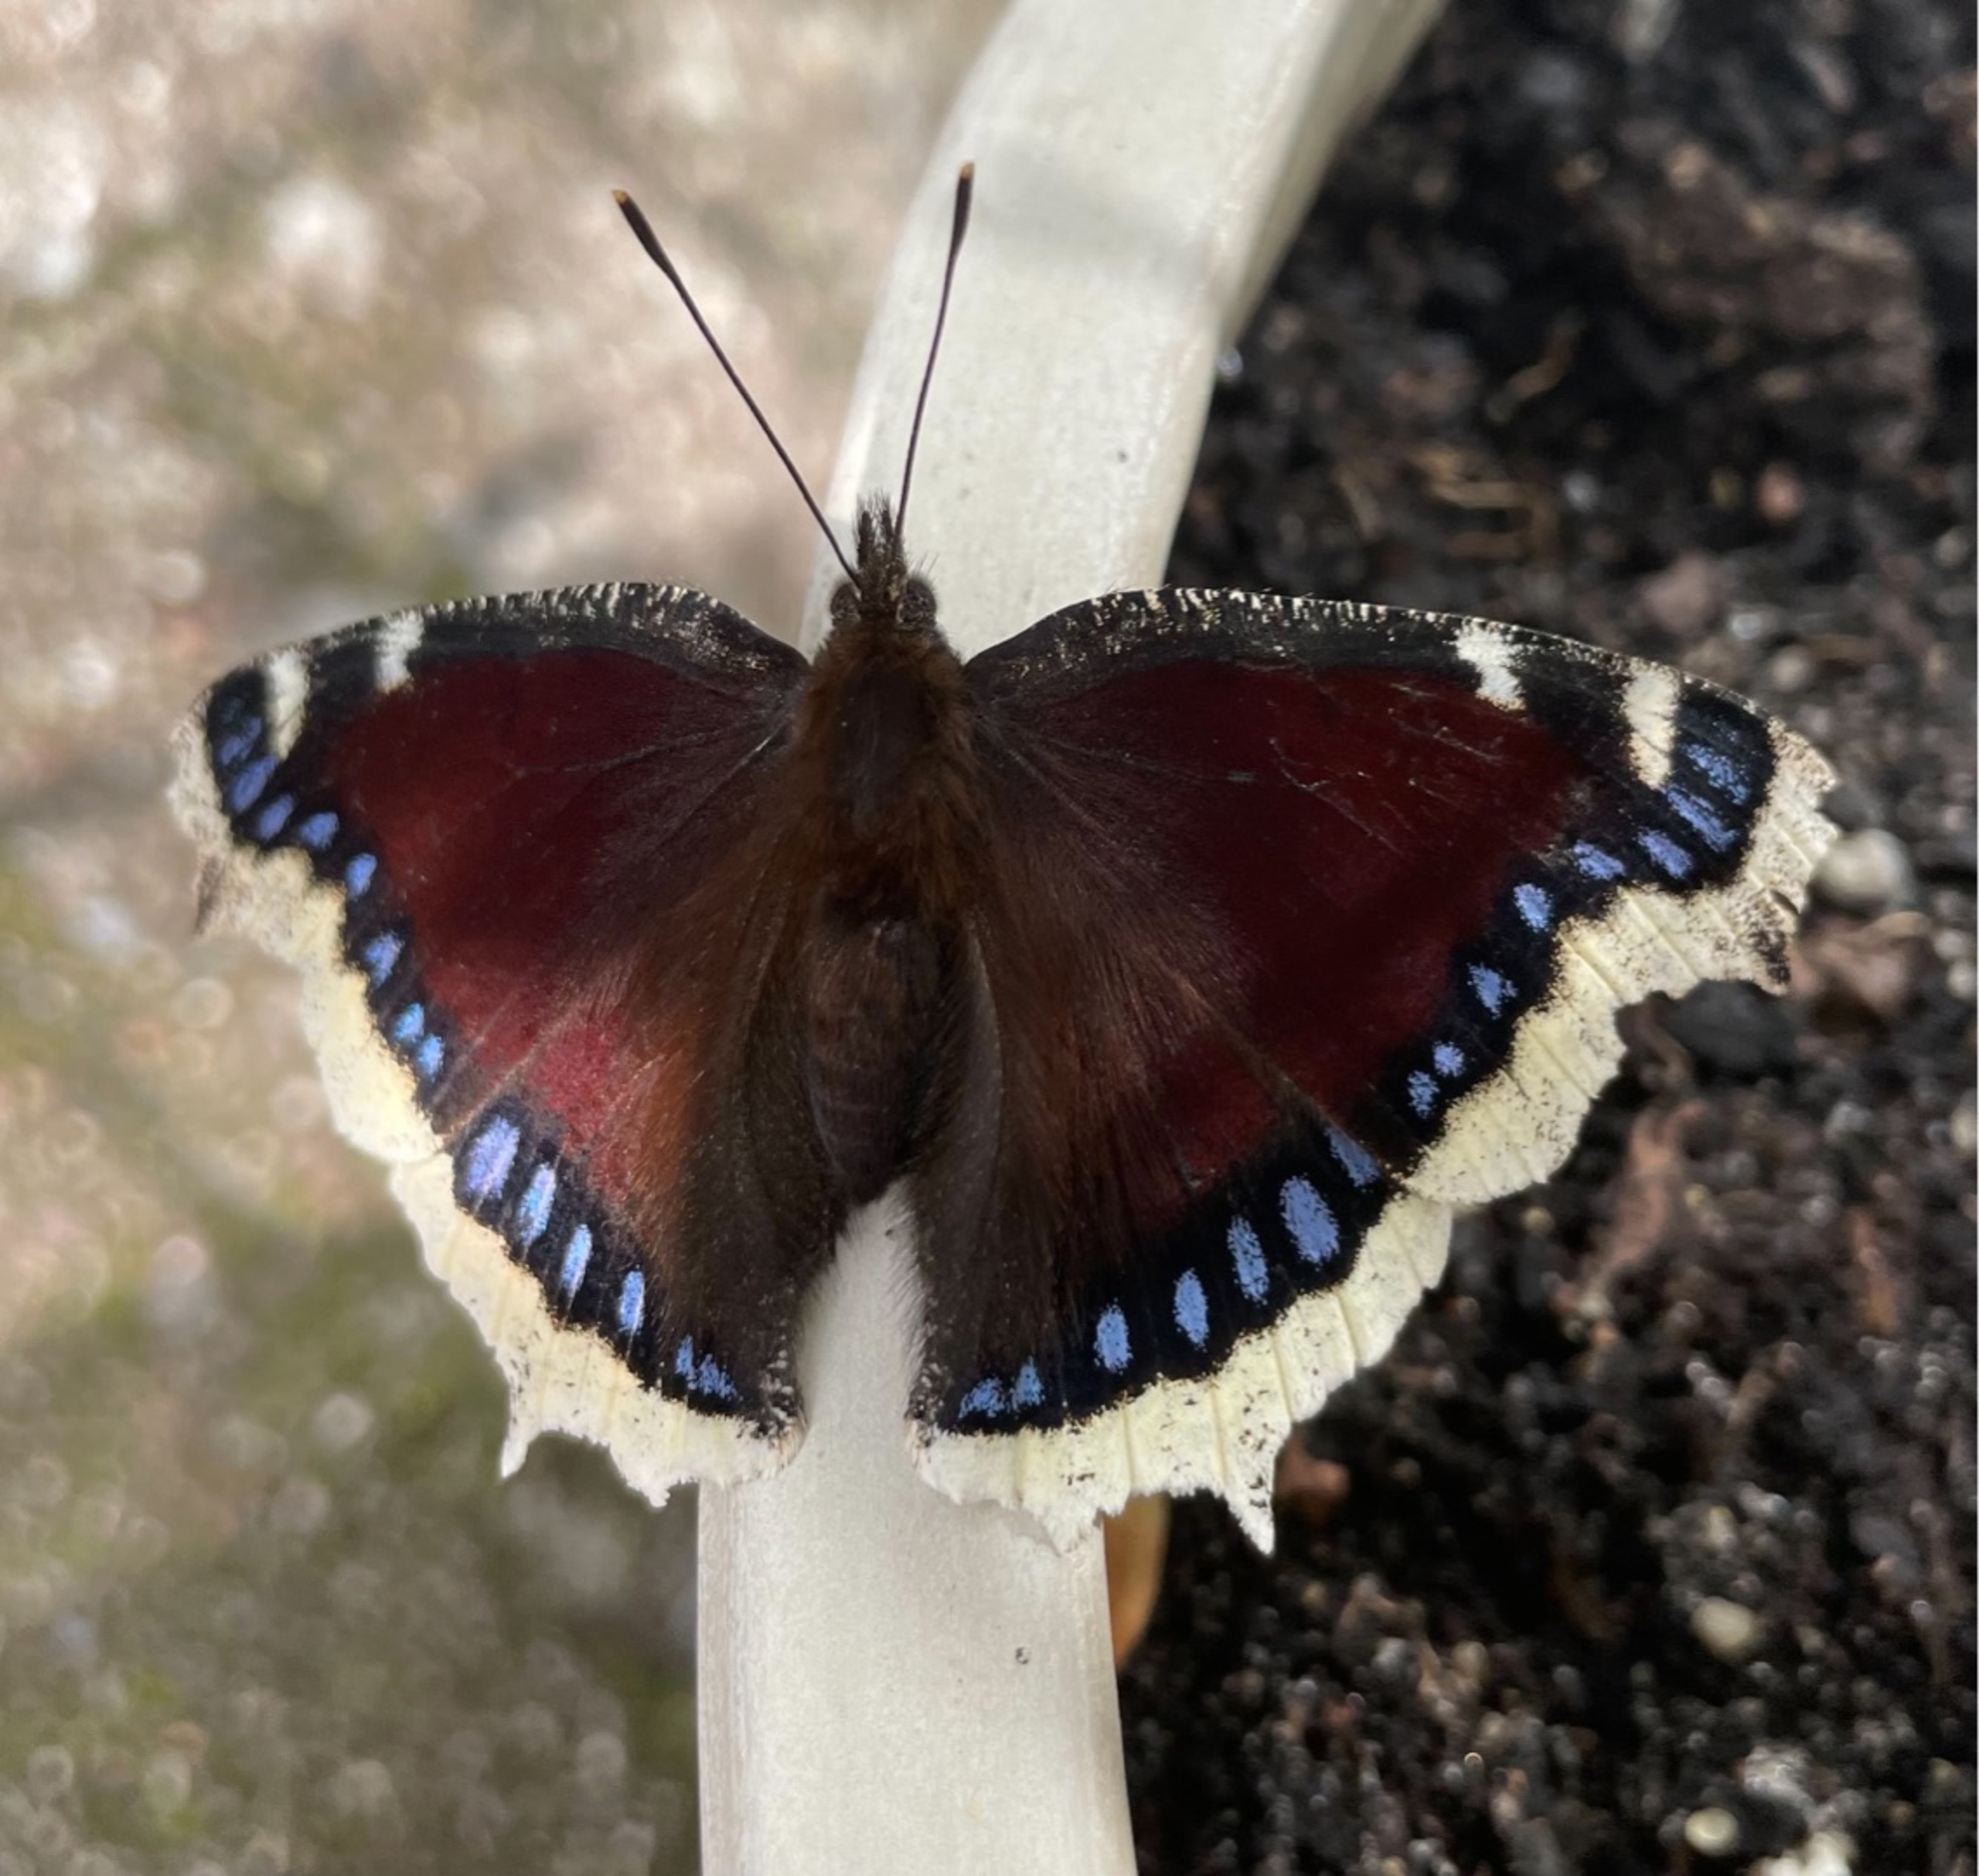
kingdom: Animalia
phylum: Arthropoda
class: Insecta
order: Lepidoptera
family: Nymphalidae
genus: Nymphalis
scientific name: Nymphalis antiopa
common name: Sørgekåbe
